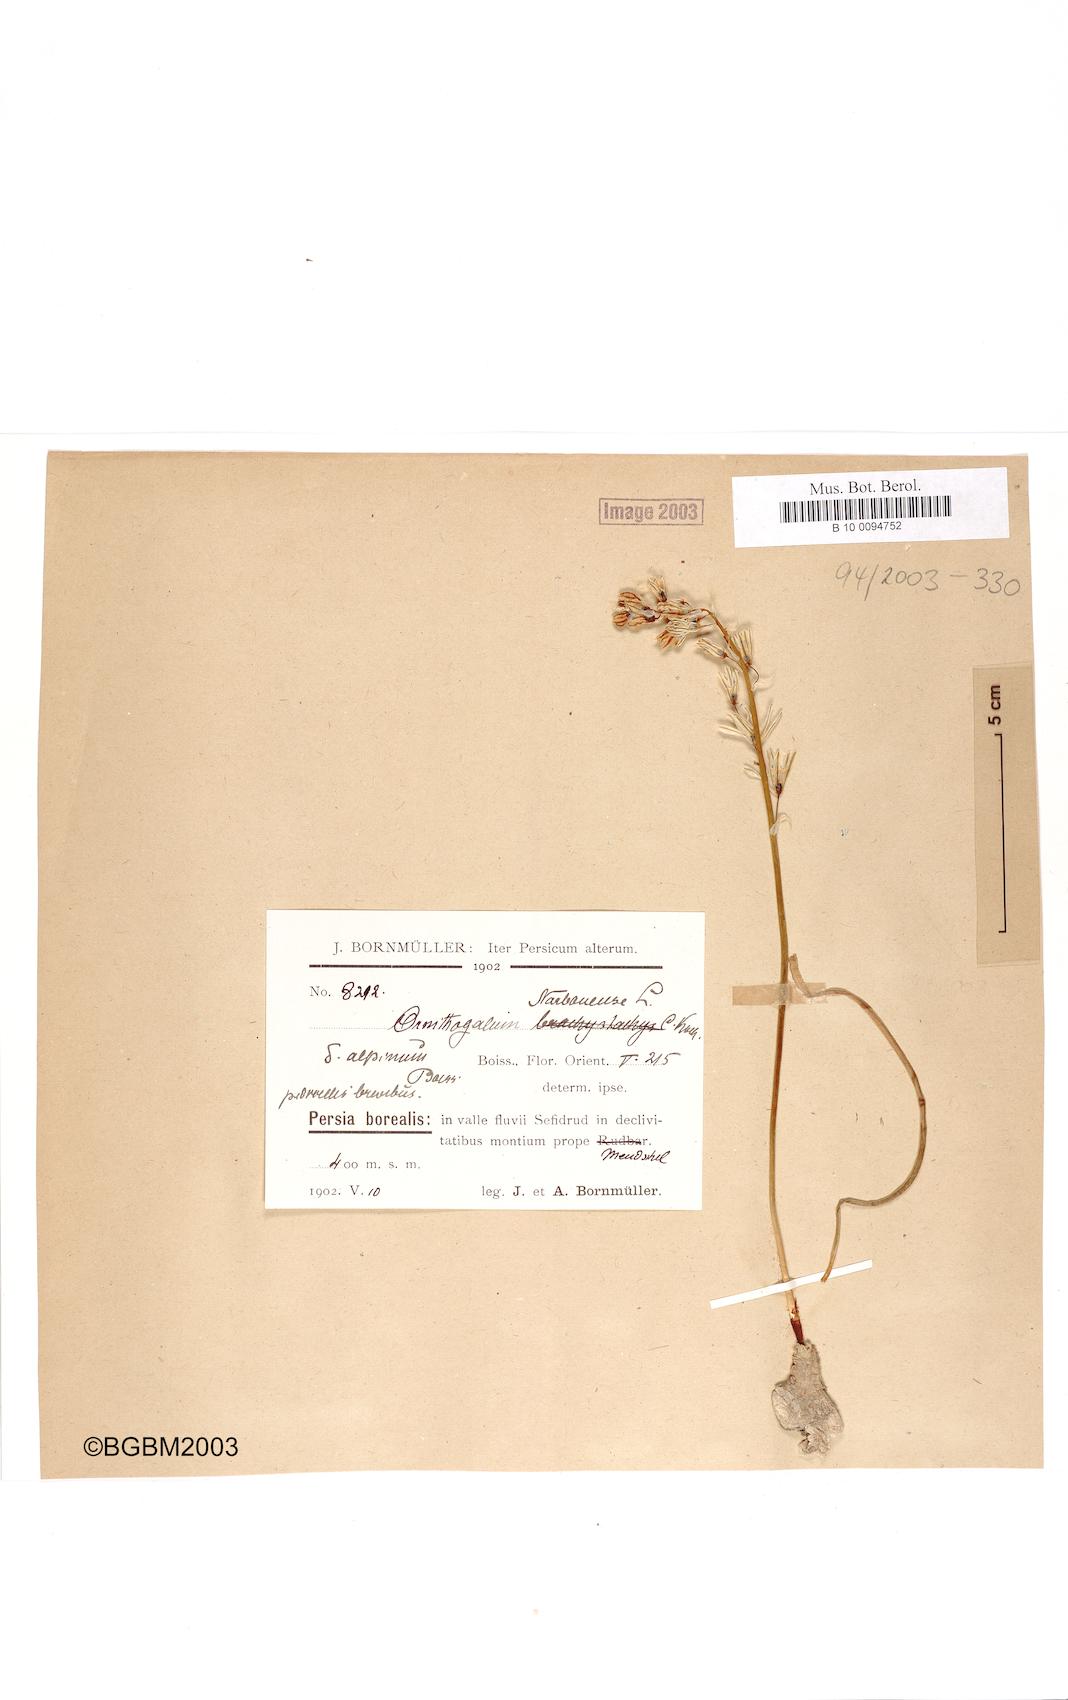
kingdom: Plantae
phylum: Tracheophyta
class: Liliopsida
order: Asparagales
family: Asparagaceae
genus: Ornithogalum
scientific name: Ornithogalum narbonense
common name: Bath-asparagus
